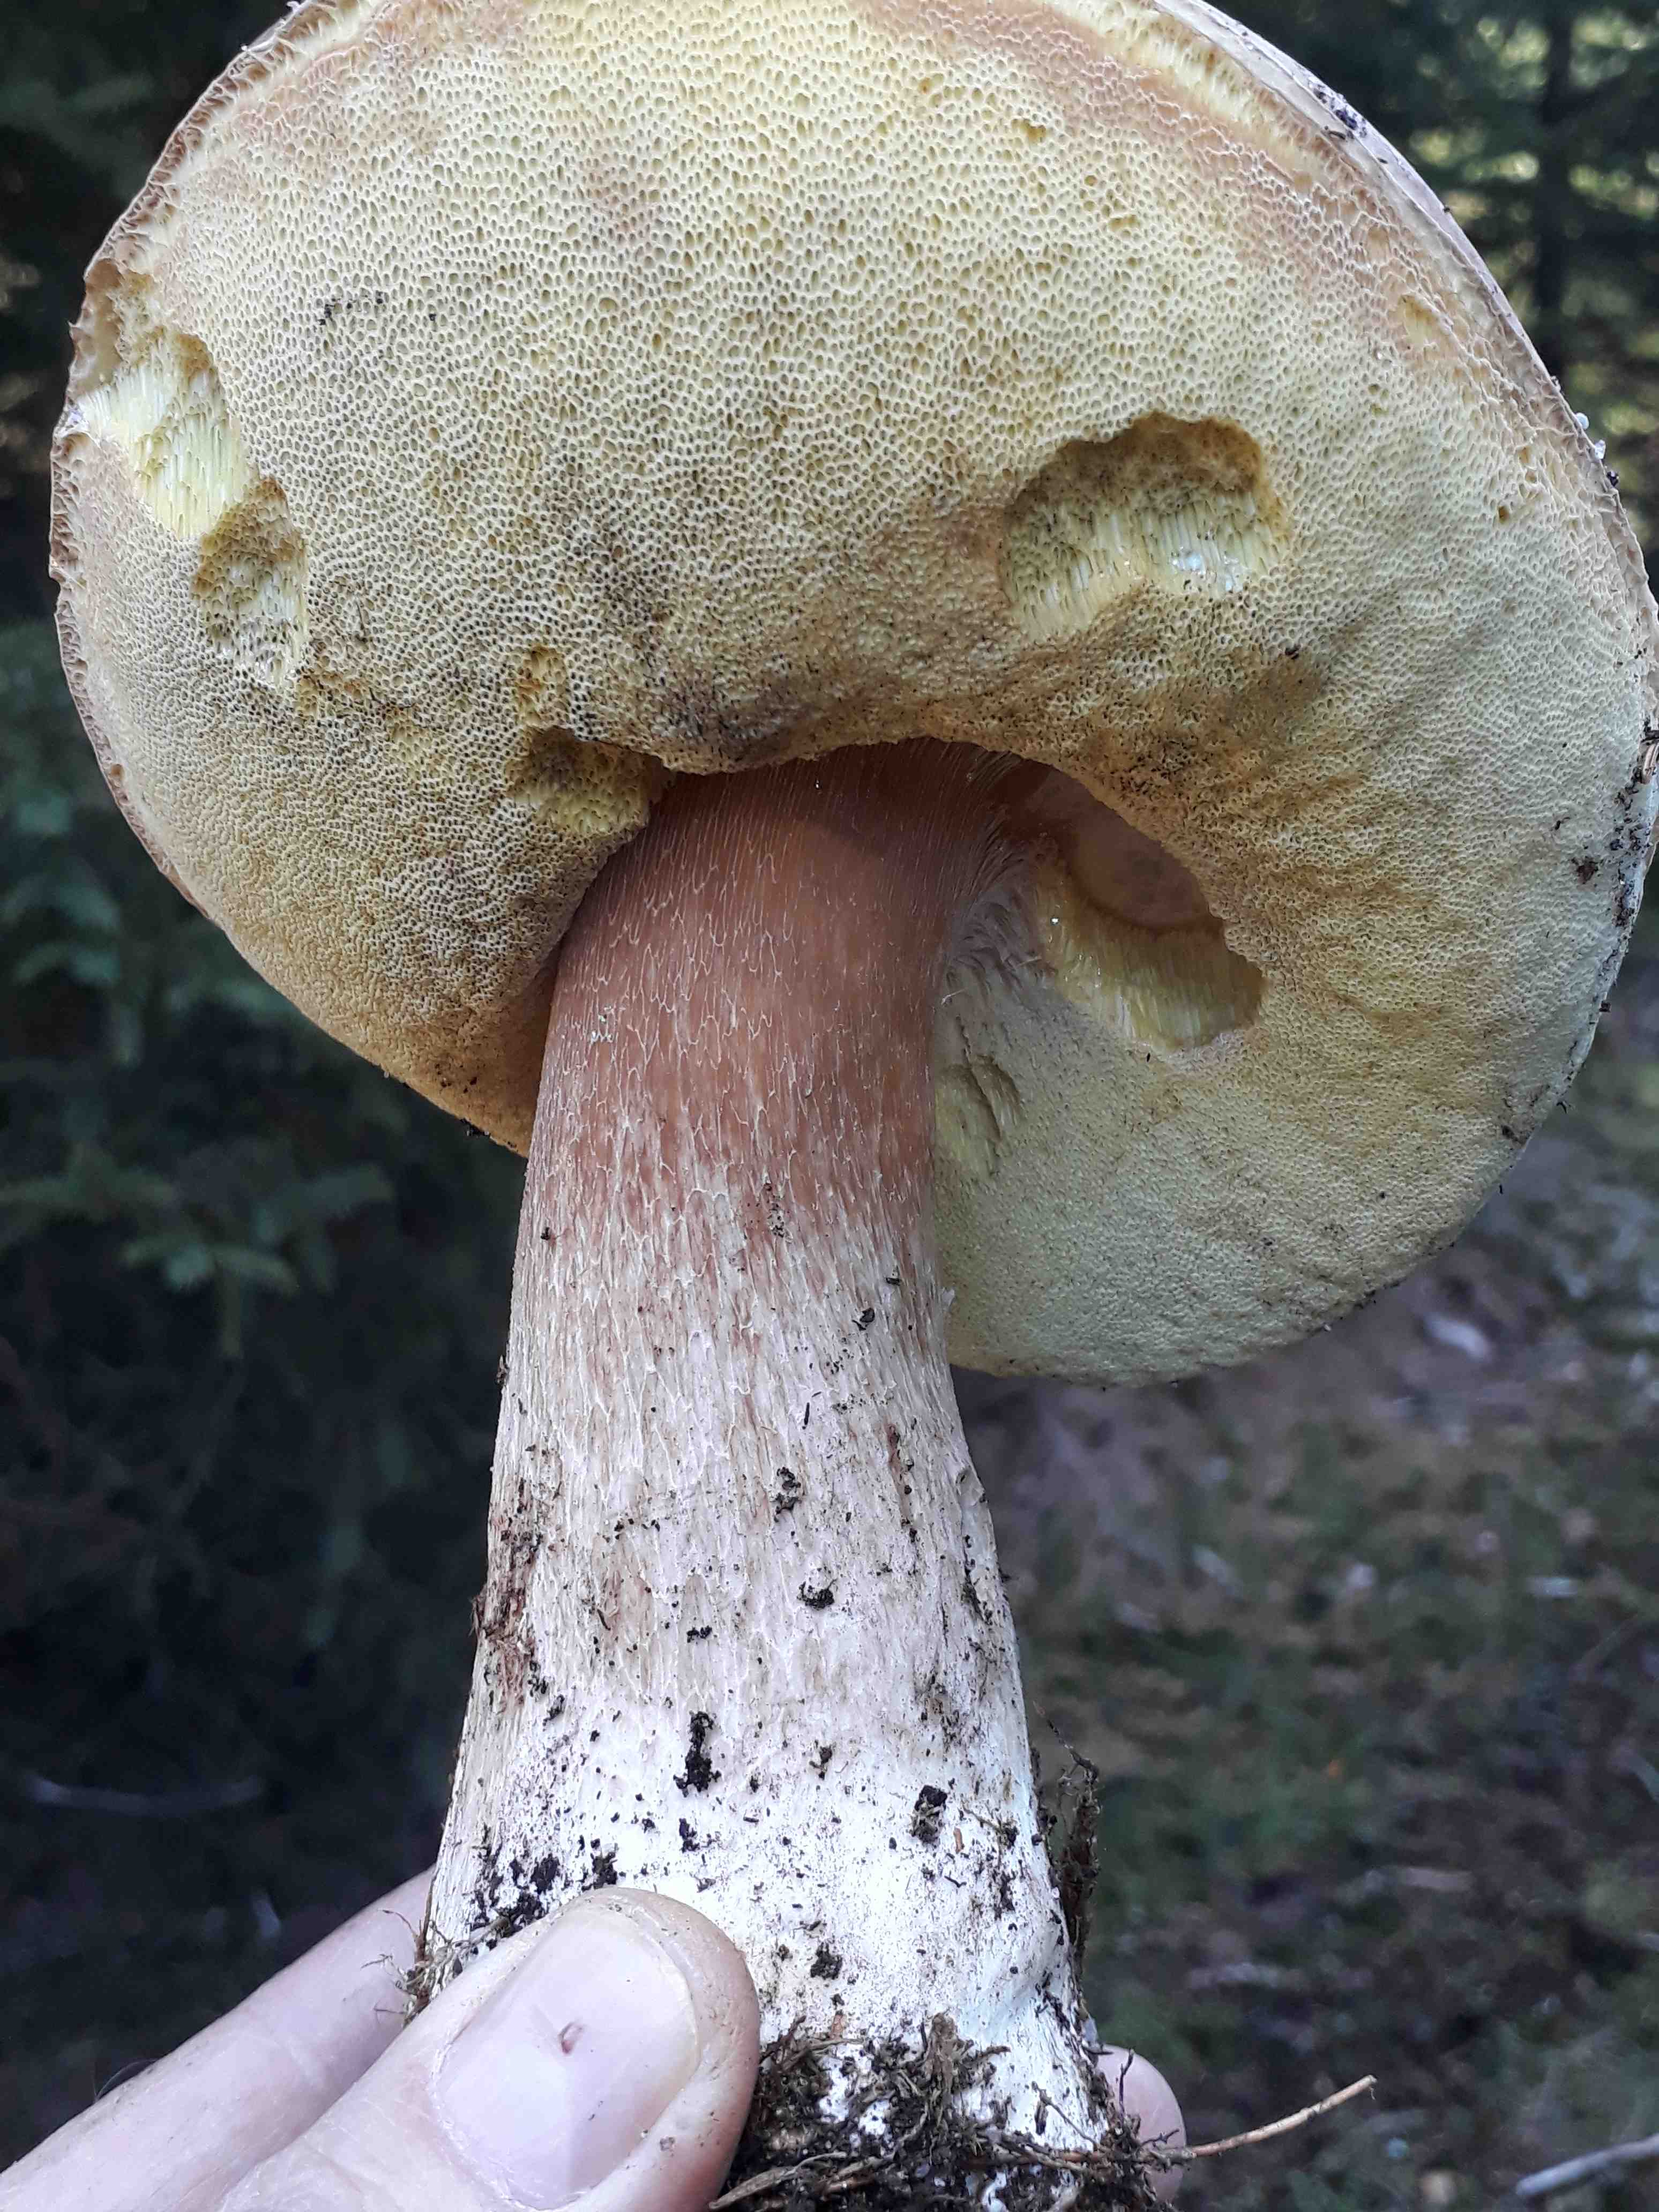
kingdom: Fungi
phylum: Basidiomycota
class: Agaricomycetes
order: Boletales
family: Boletaceae
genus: Boletus
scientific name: Boletus edulis
